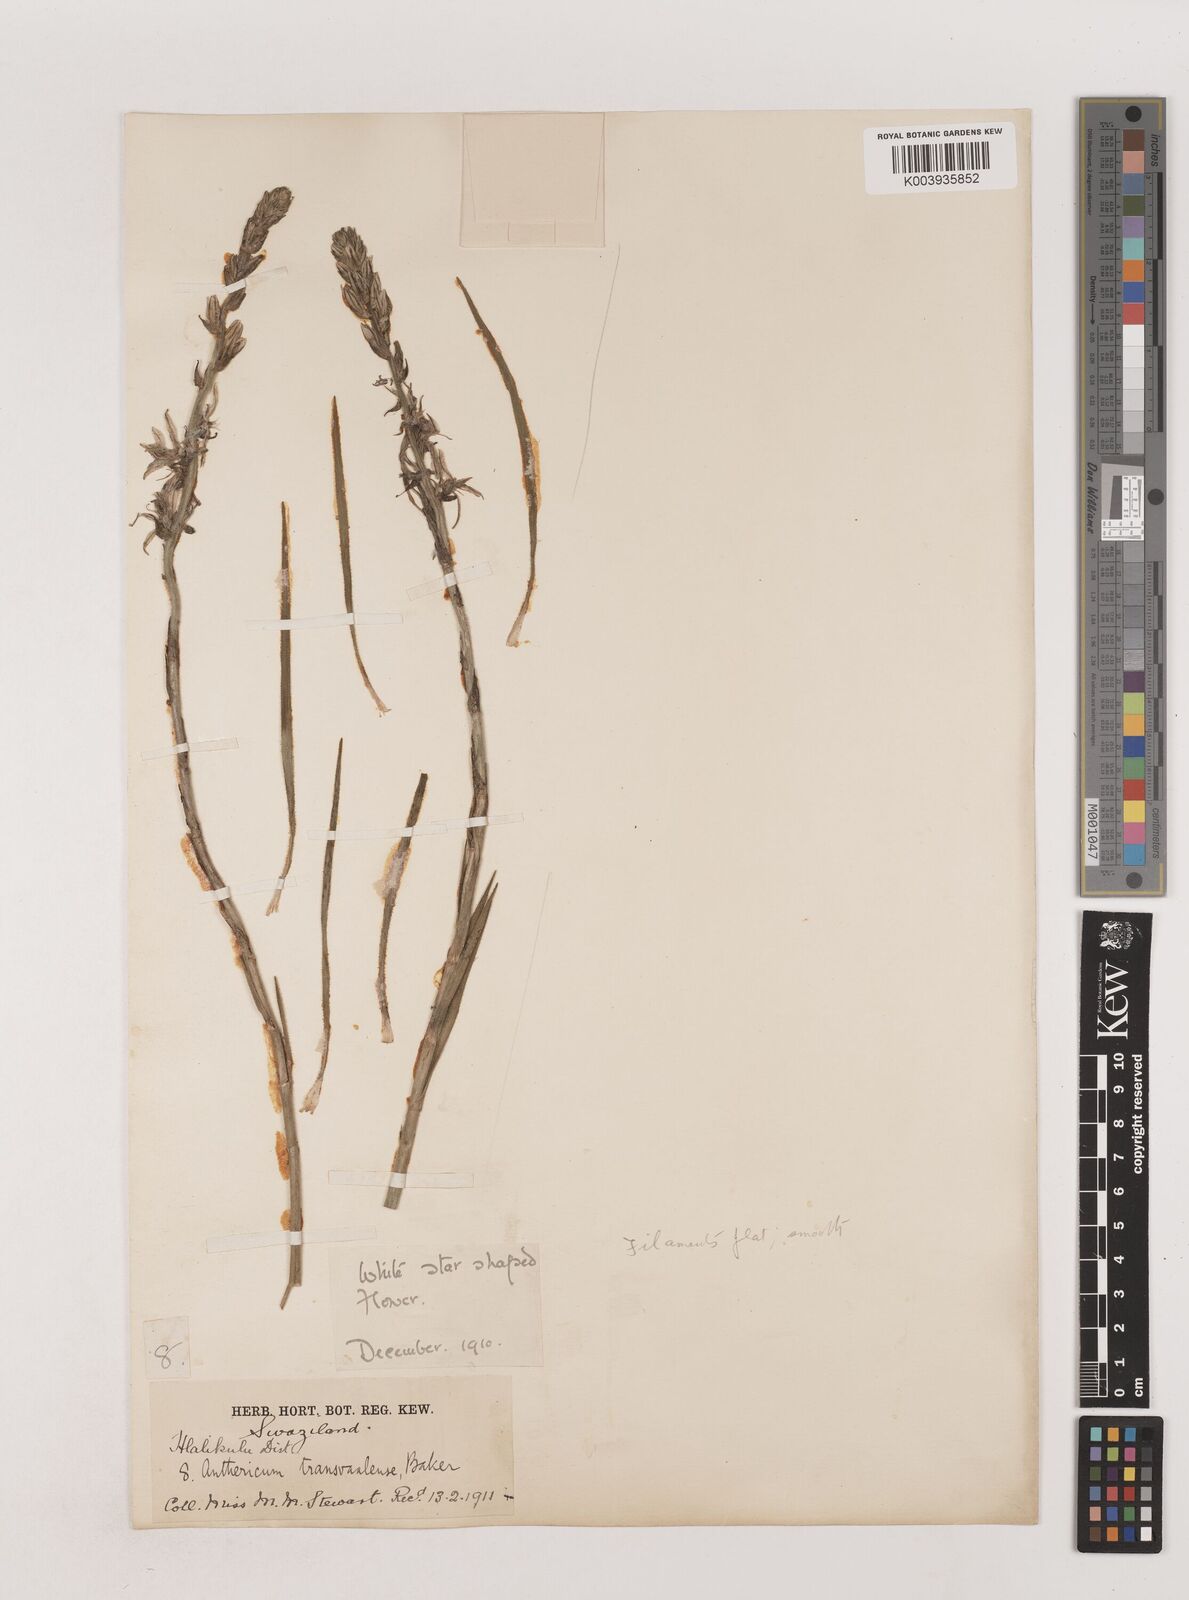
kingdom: Plantae
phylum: Tracheophyta
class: Liliopsida
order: Asparagales
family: Asparagaceae
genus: Chlorophytum
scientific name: Chlorophytum transvaalense
